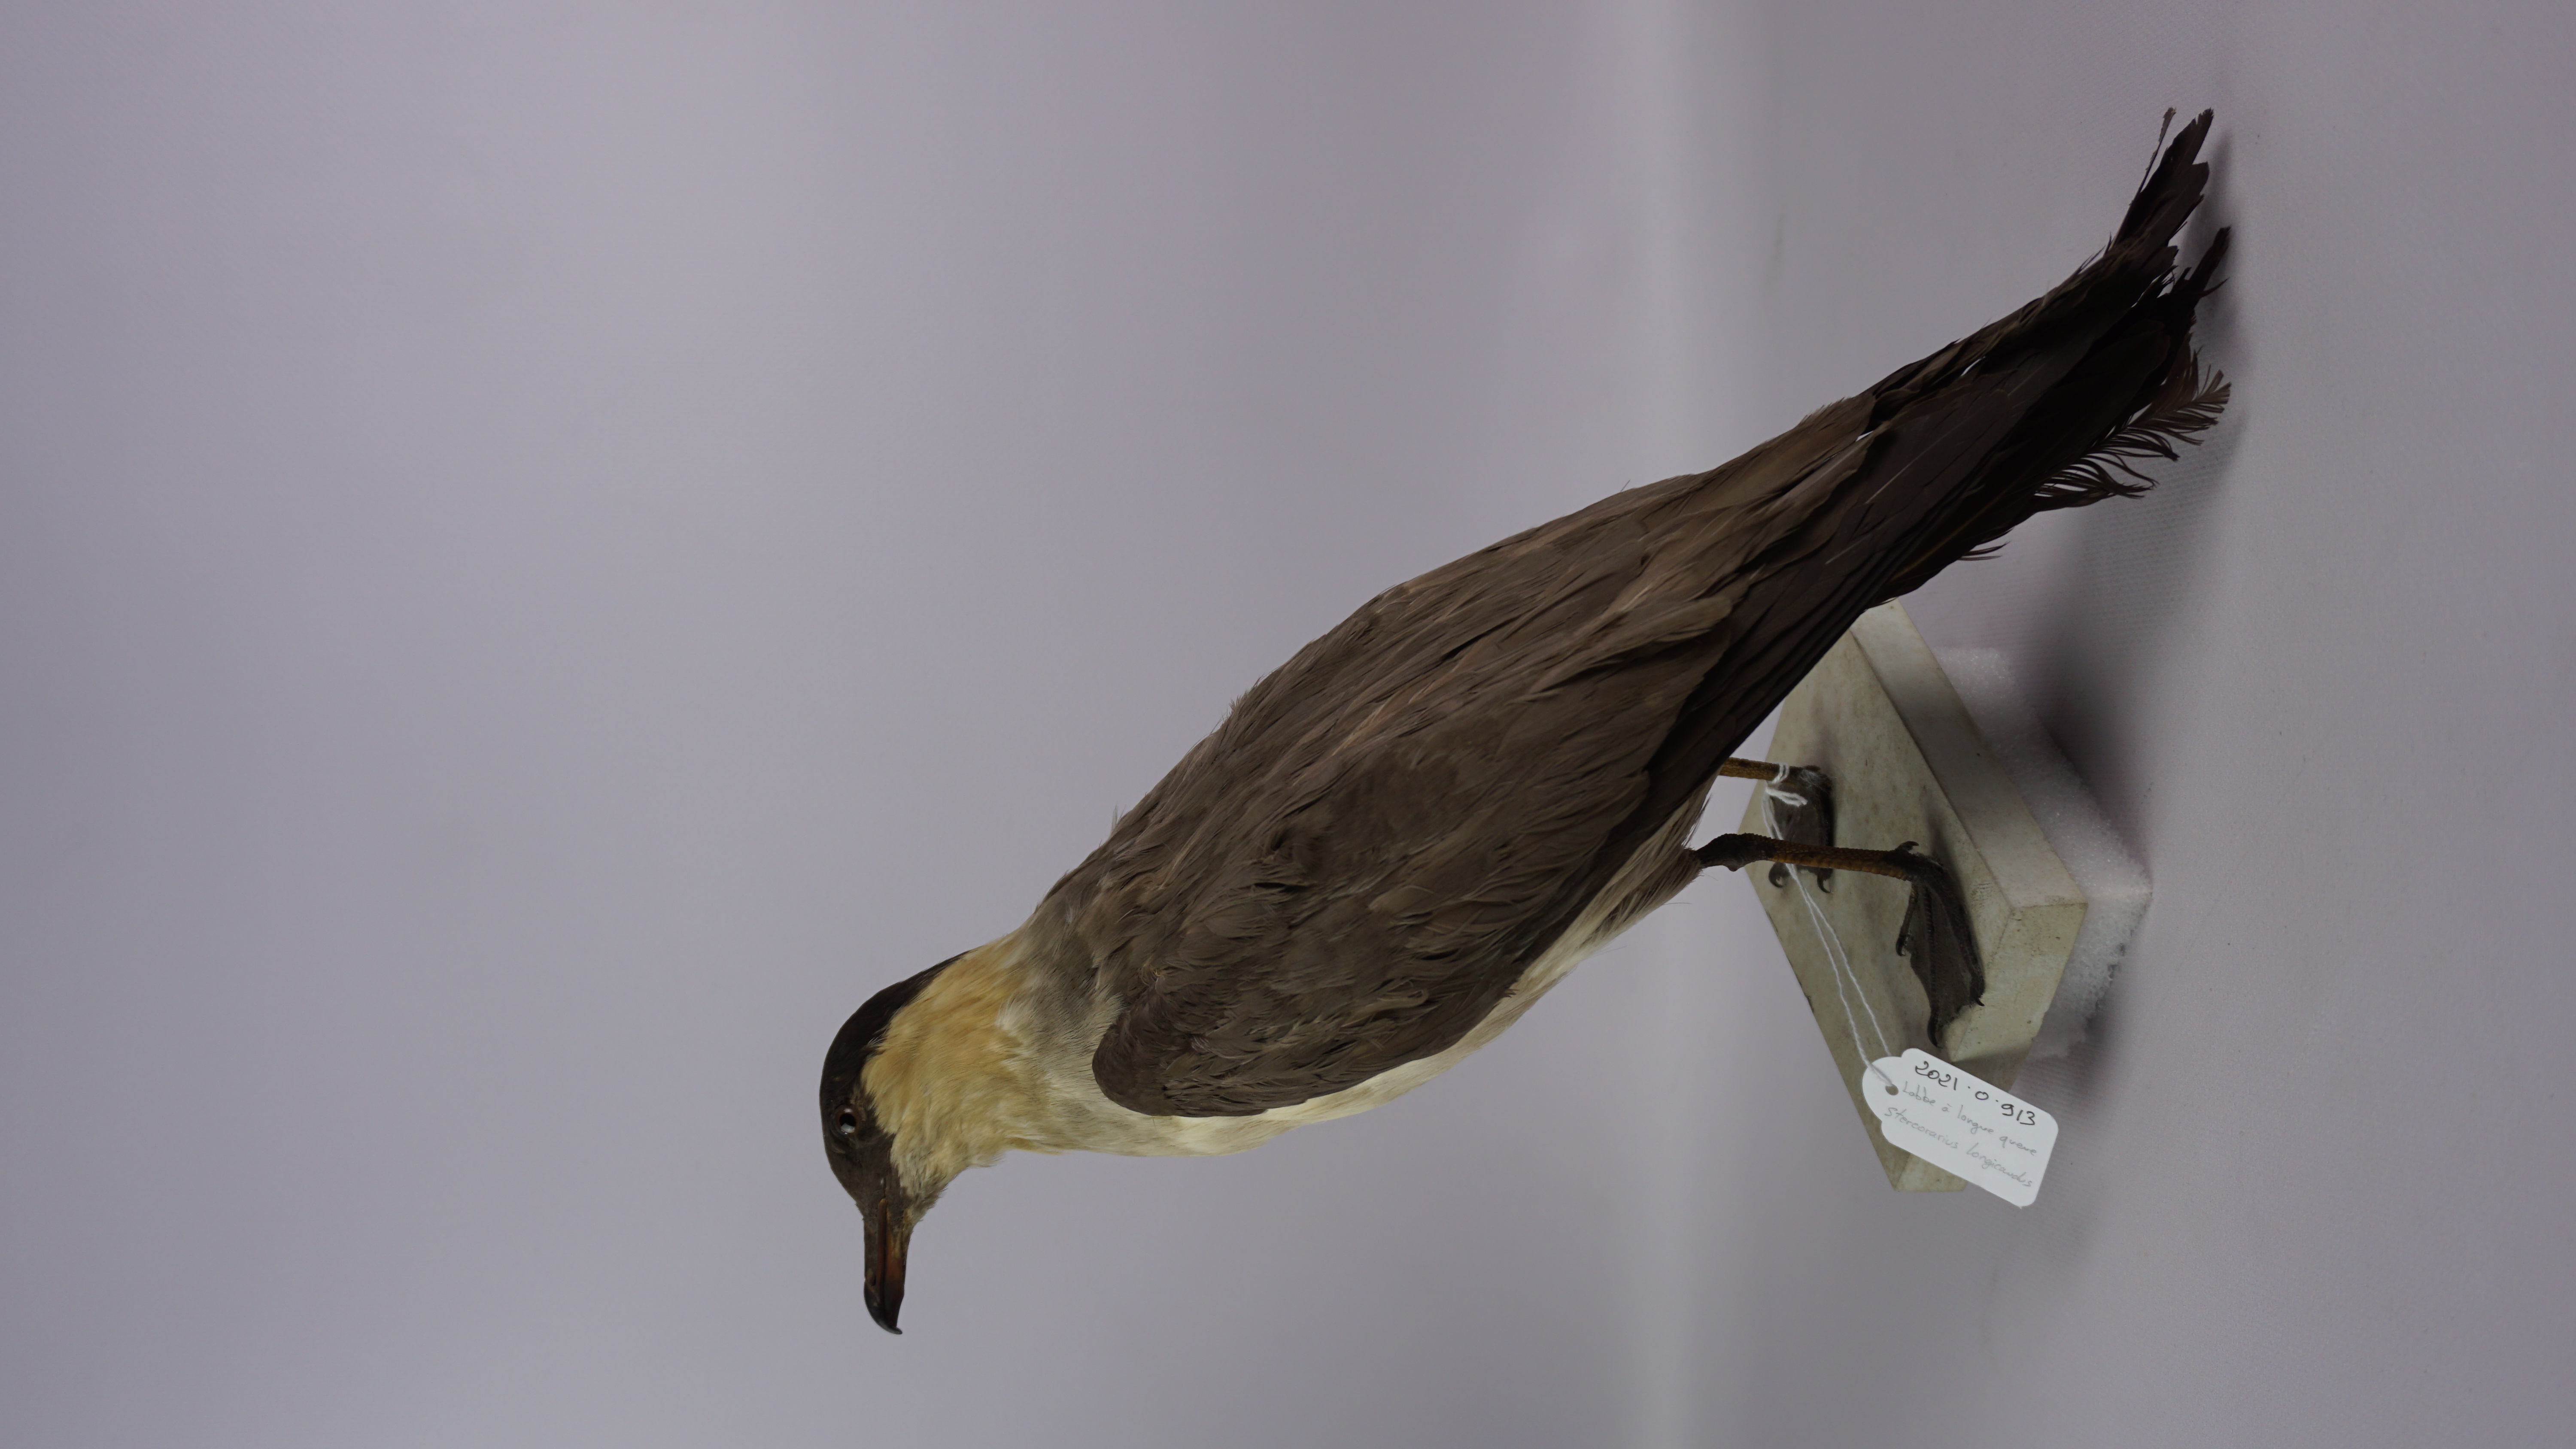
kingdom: Animalia
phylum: Chordata
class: Aves
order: Charadriiformes
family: Stercorariidae
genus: Stercorarius
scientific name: Stercorarius longicaudus
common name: Long-tailed jaeger
